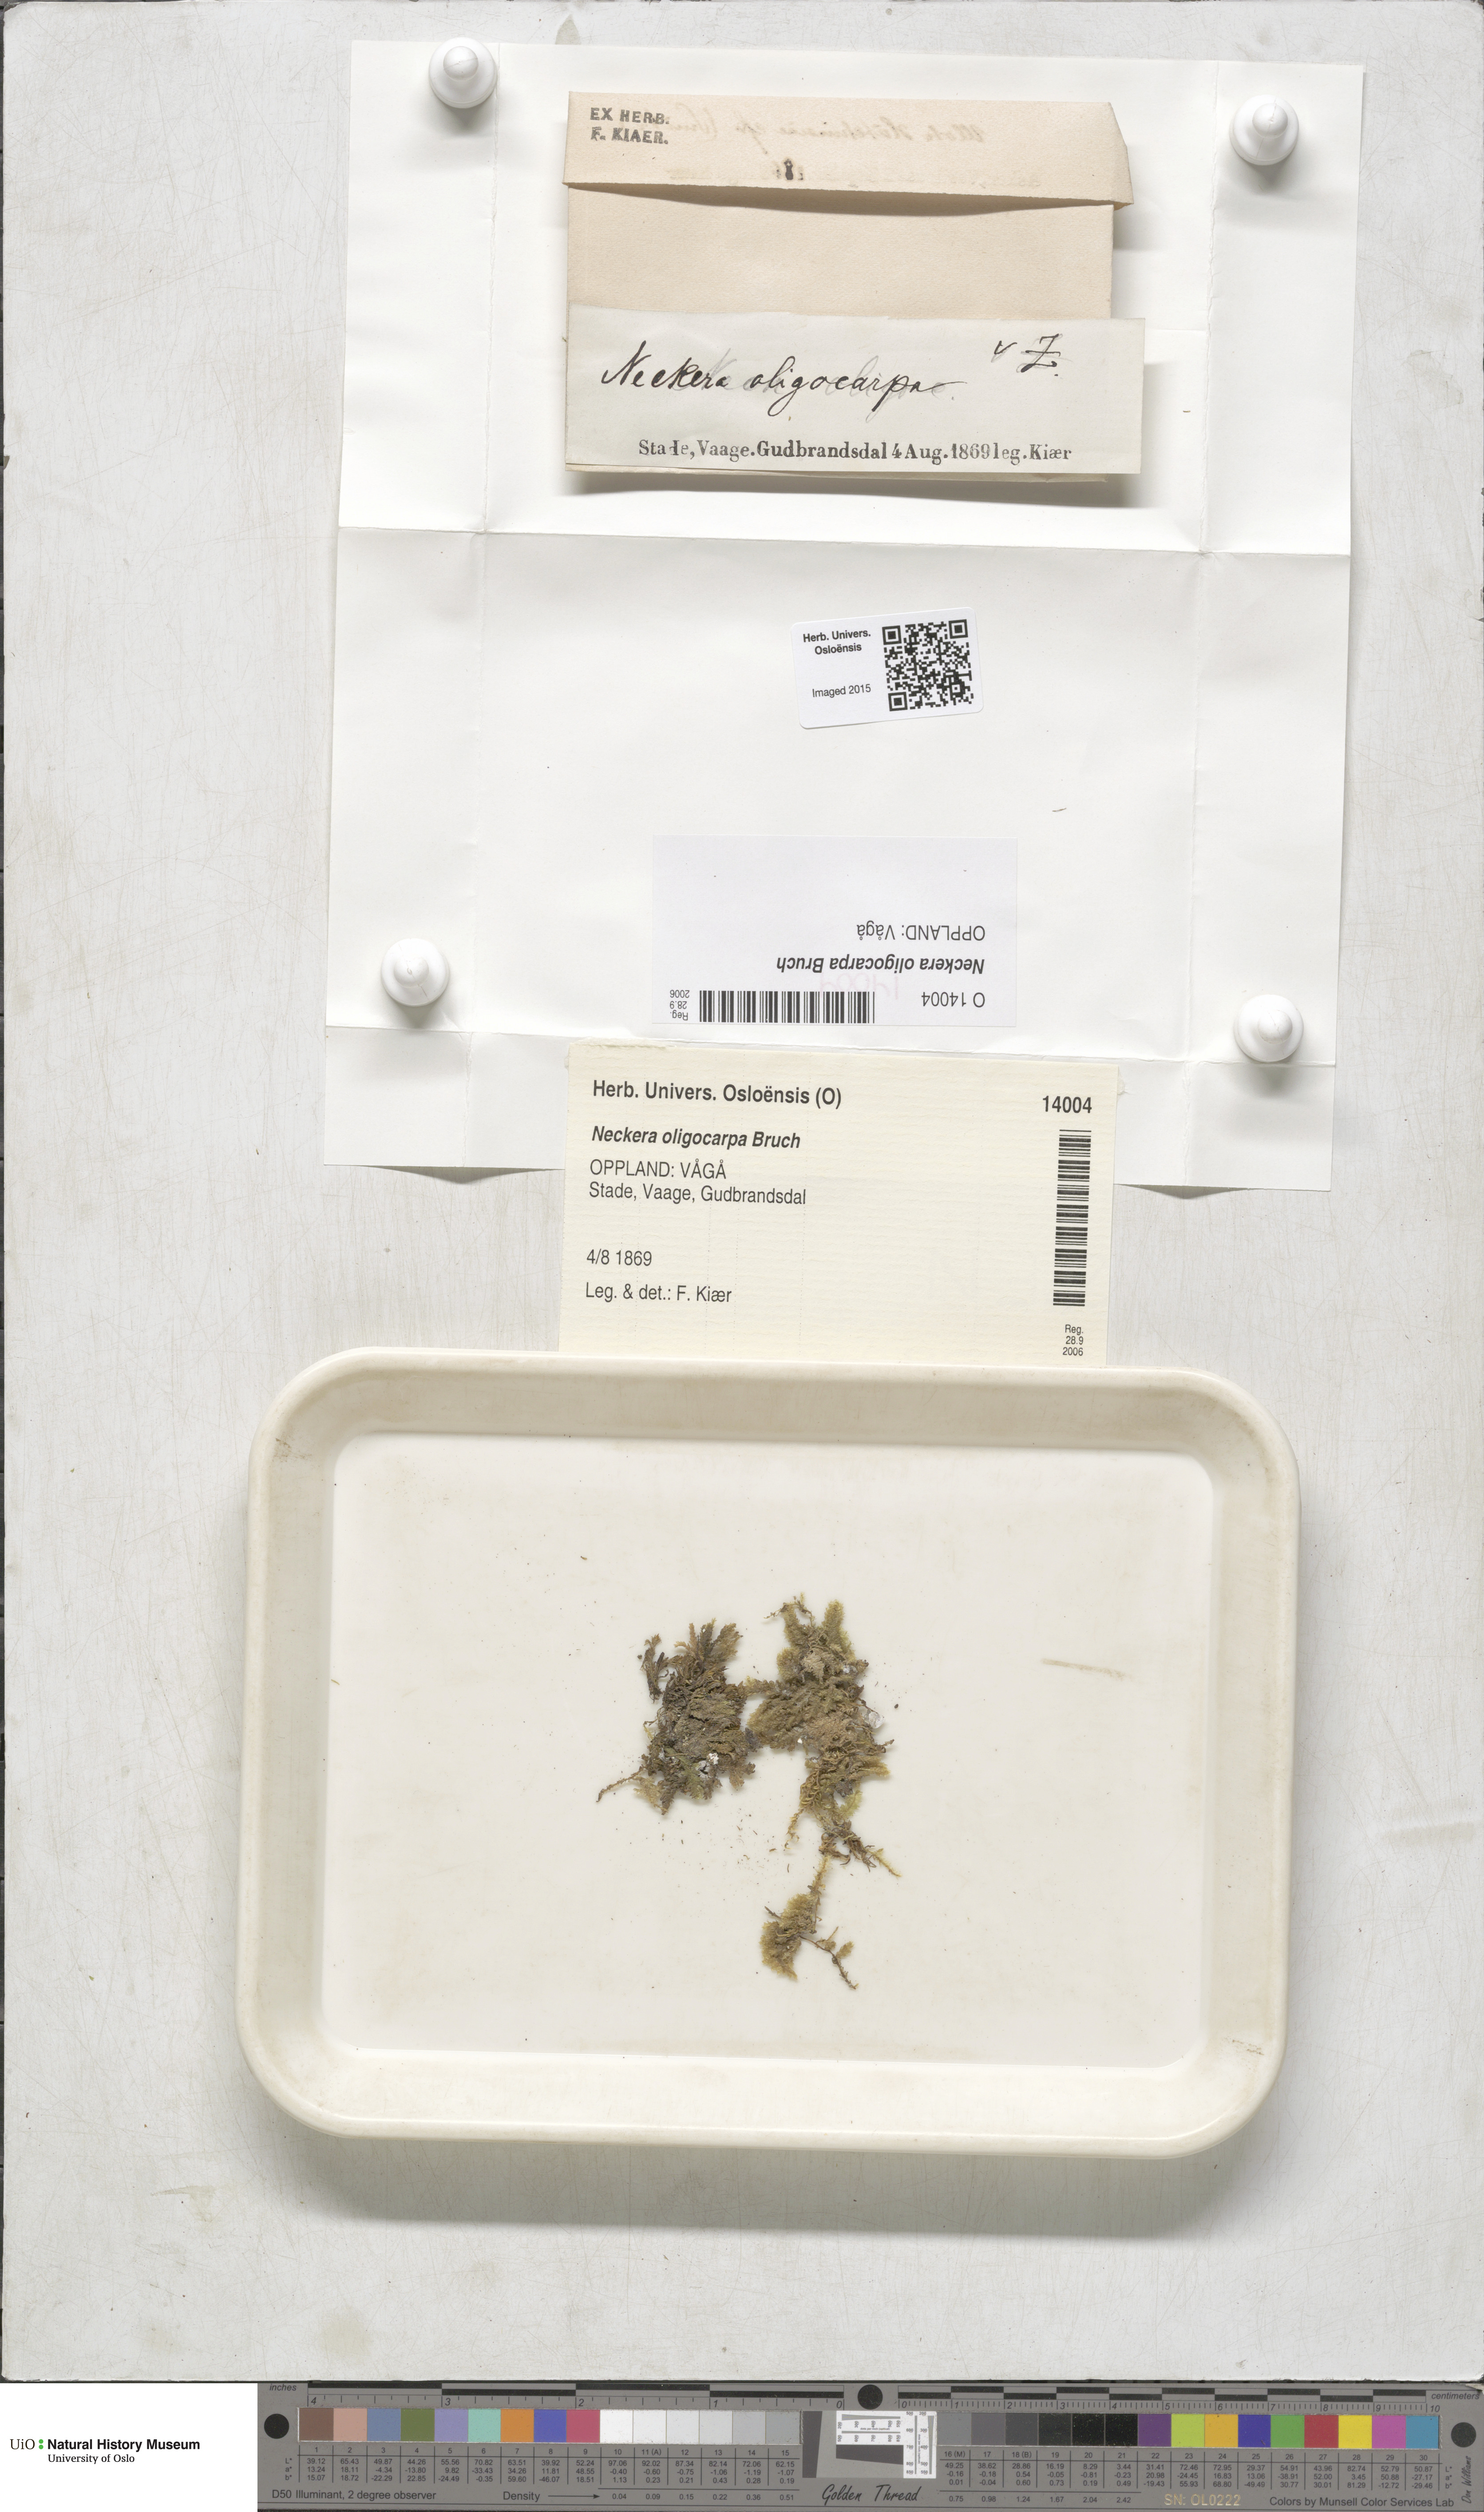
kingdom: Plantae
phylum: Bryophyta
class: Bryopsida
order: Hypnales
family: Neckeraceae
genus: Neckera
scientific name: Neckera oligocarpa
